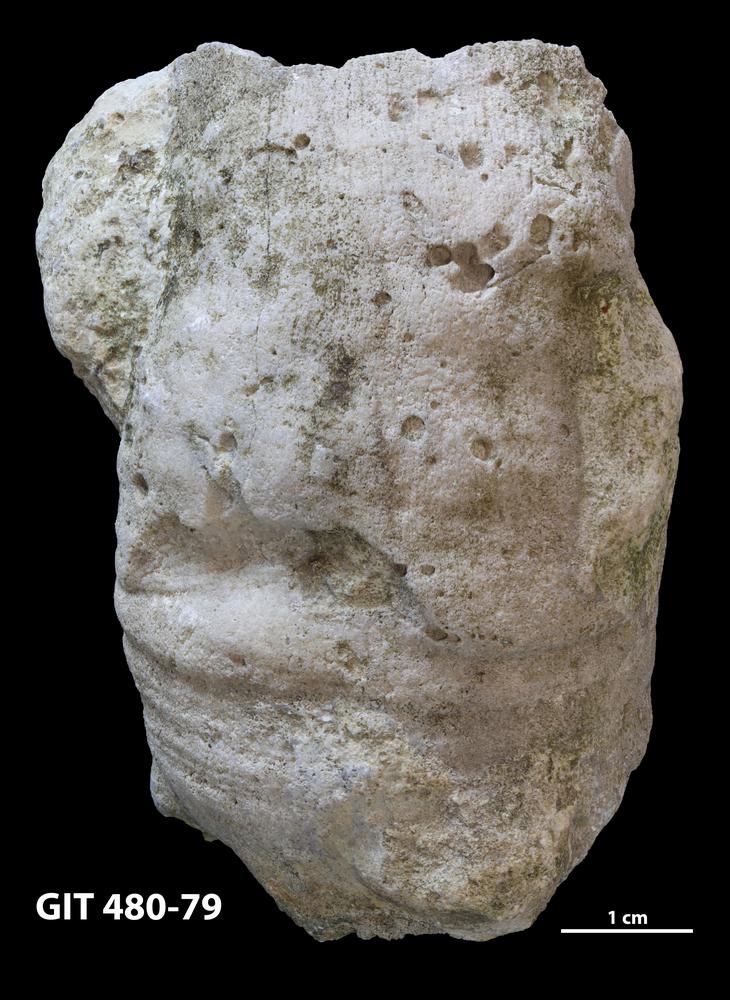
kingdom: Animalia
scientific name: Animalia
